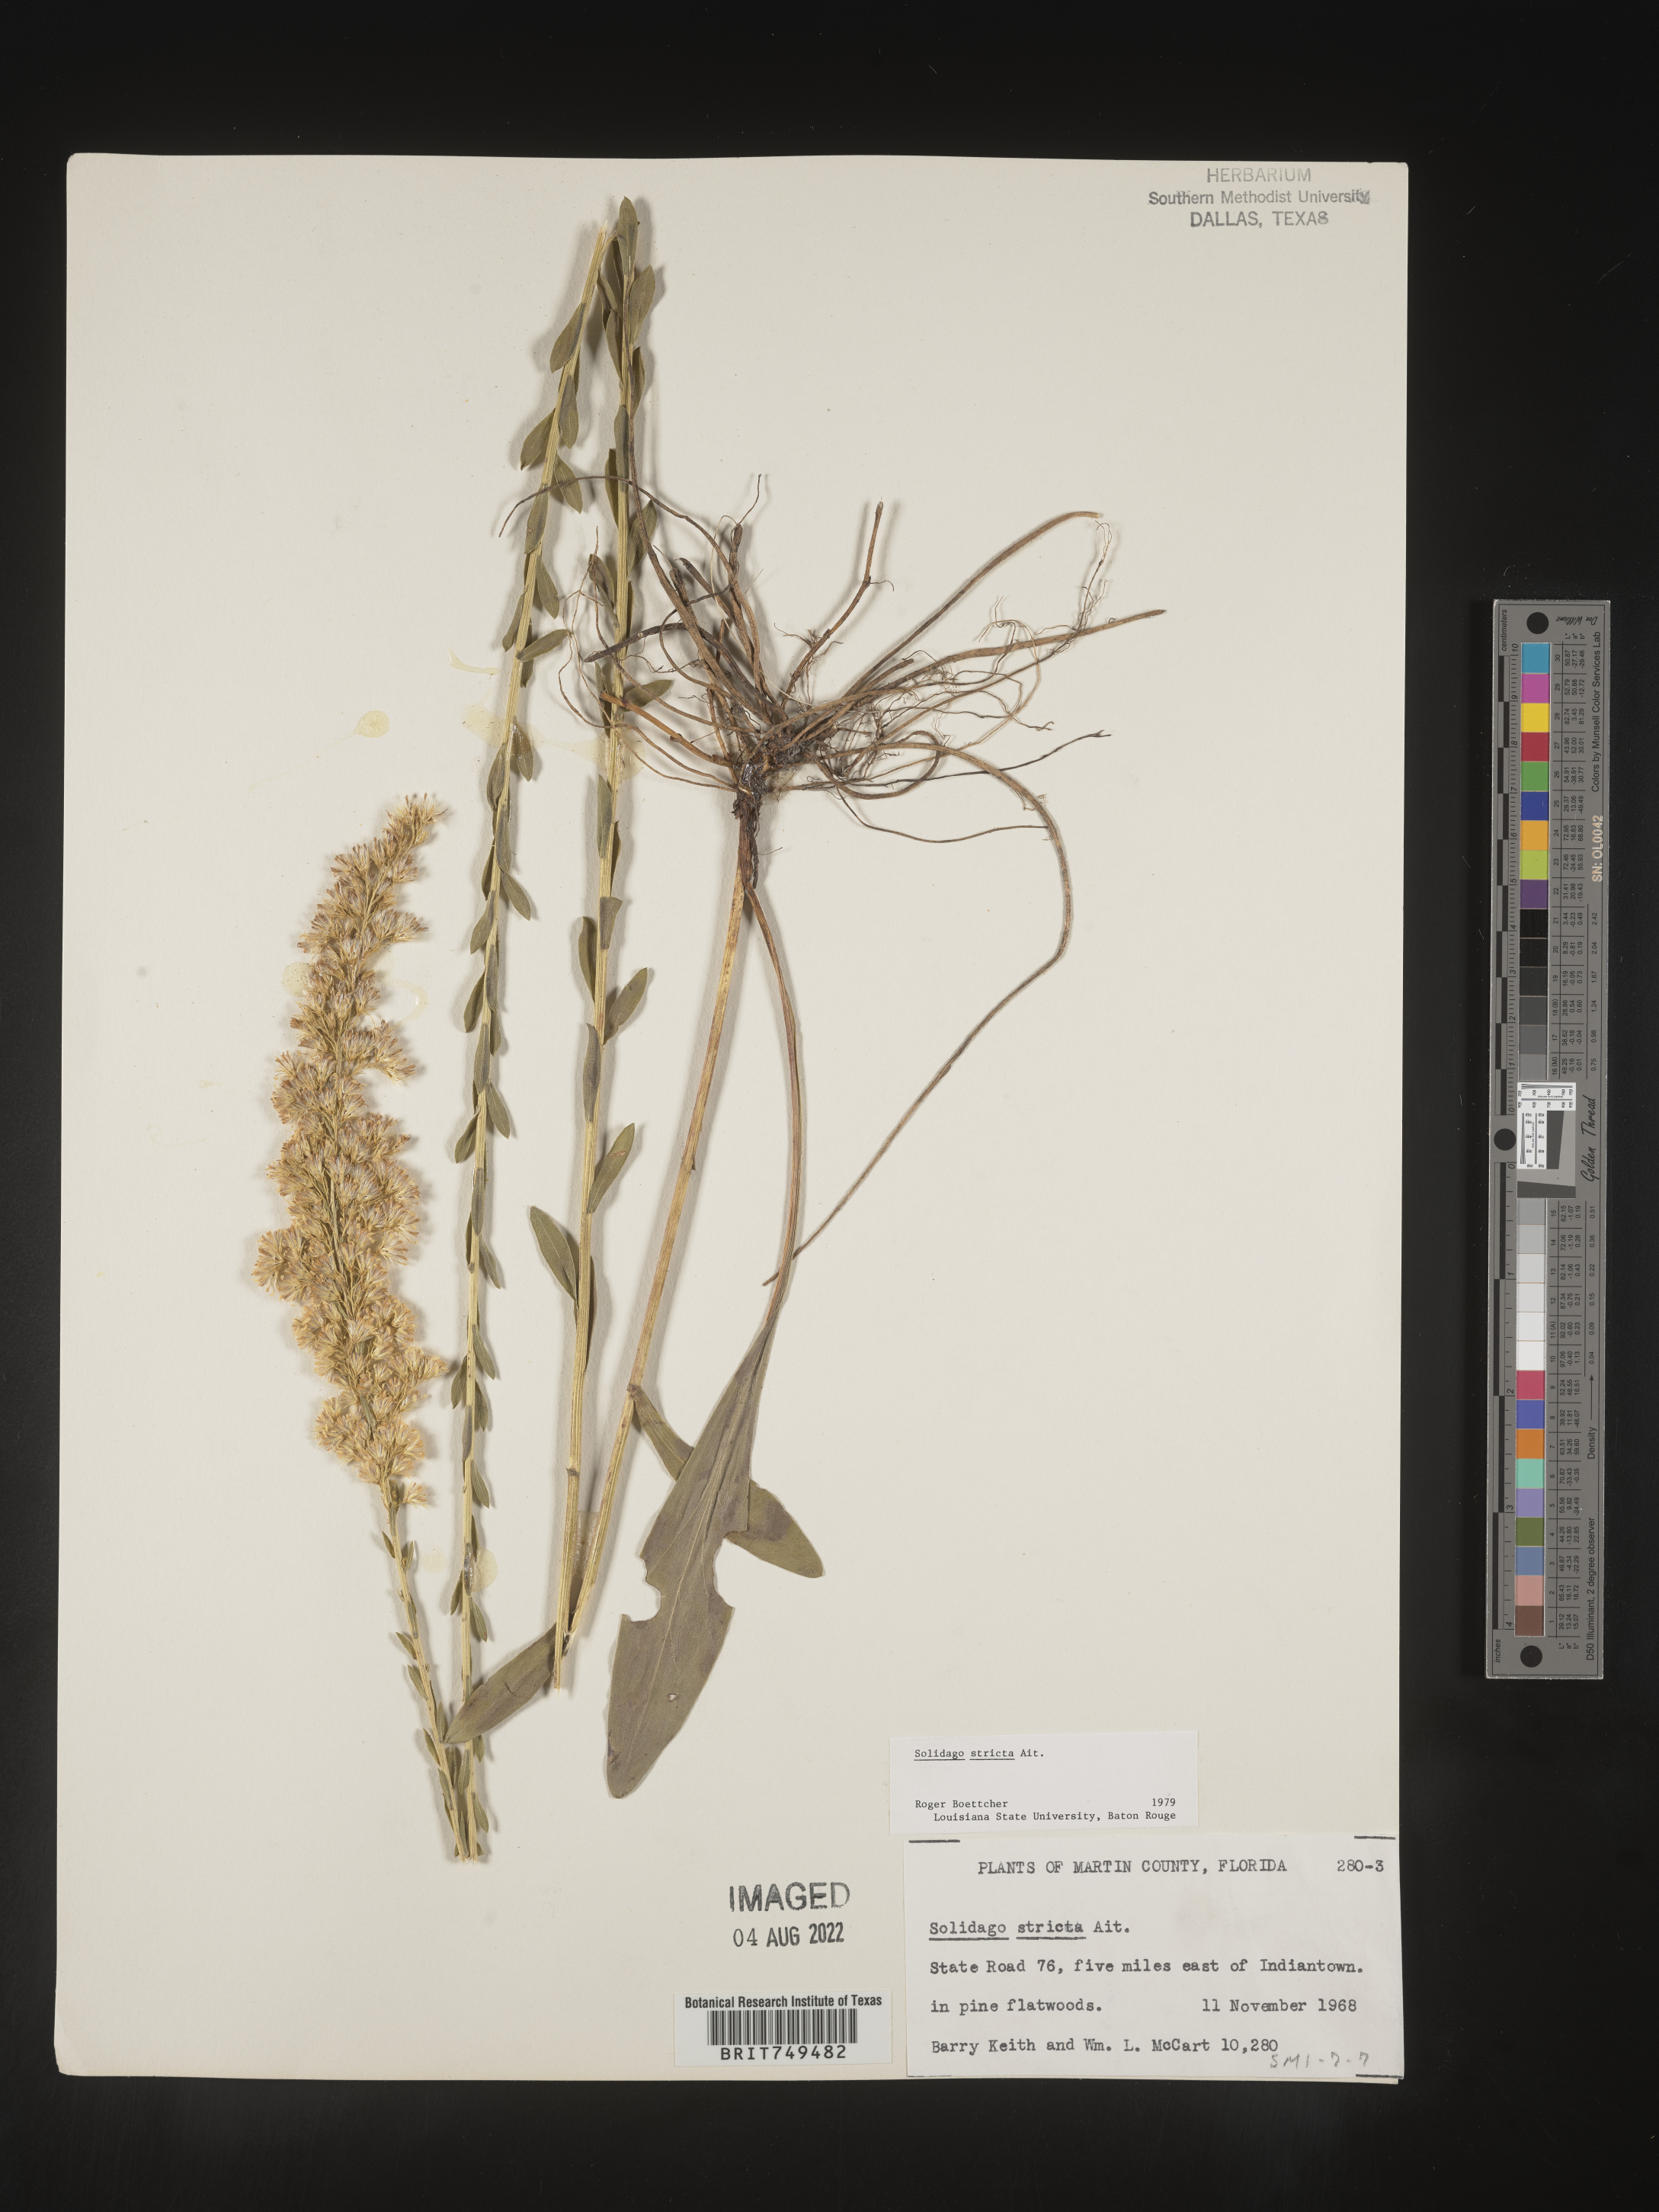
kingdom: Plantae
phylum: Tracheophyta
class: Magnoliopsida
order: Asterales
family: Asteraceae
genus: Solidago
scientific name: Solidago stricta
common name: Pine barren bog goldenrod
